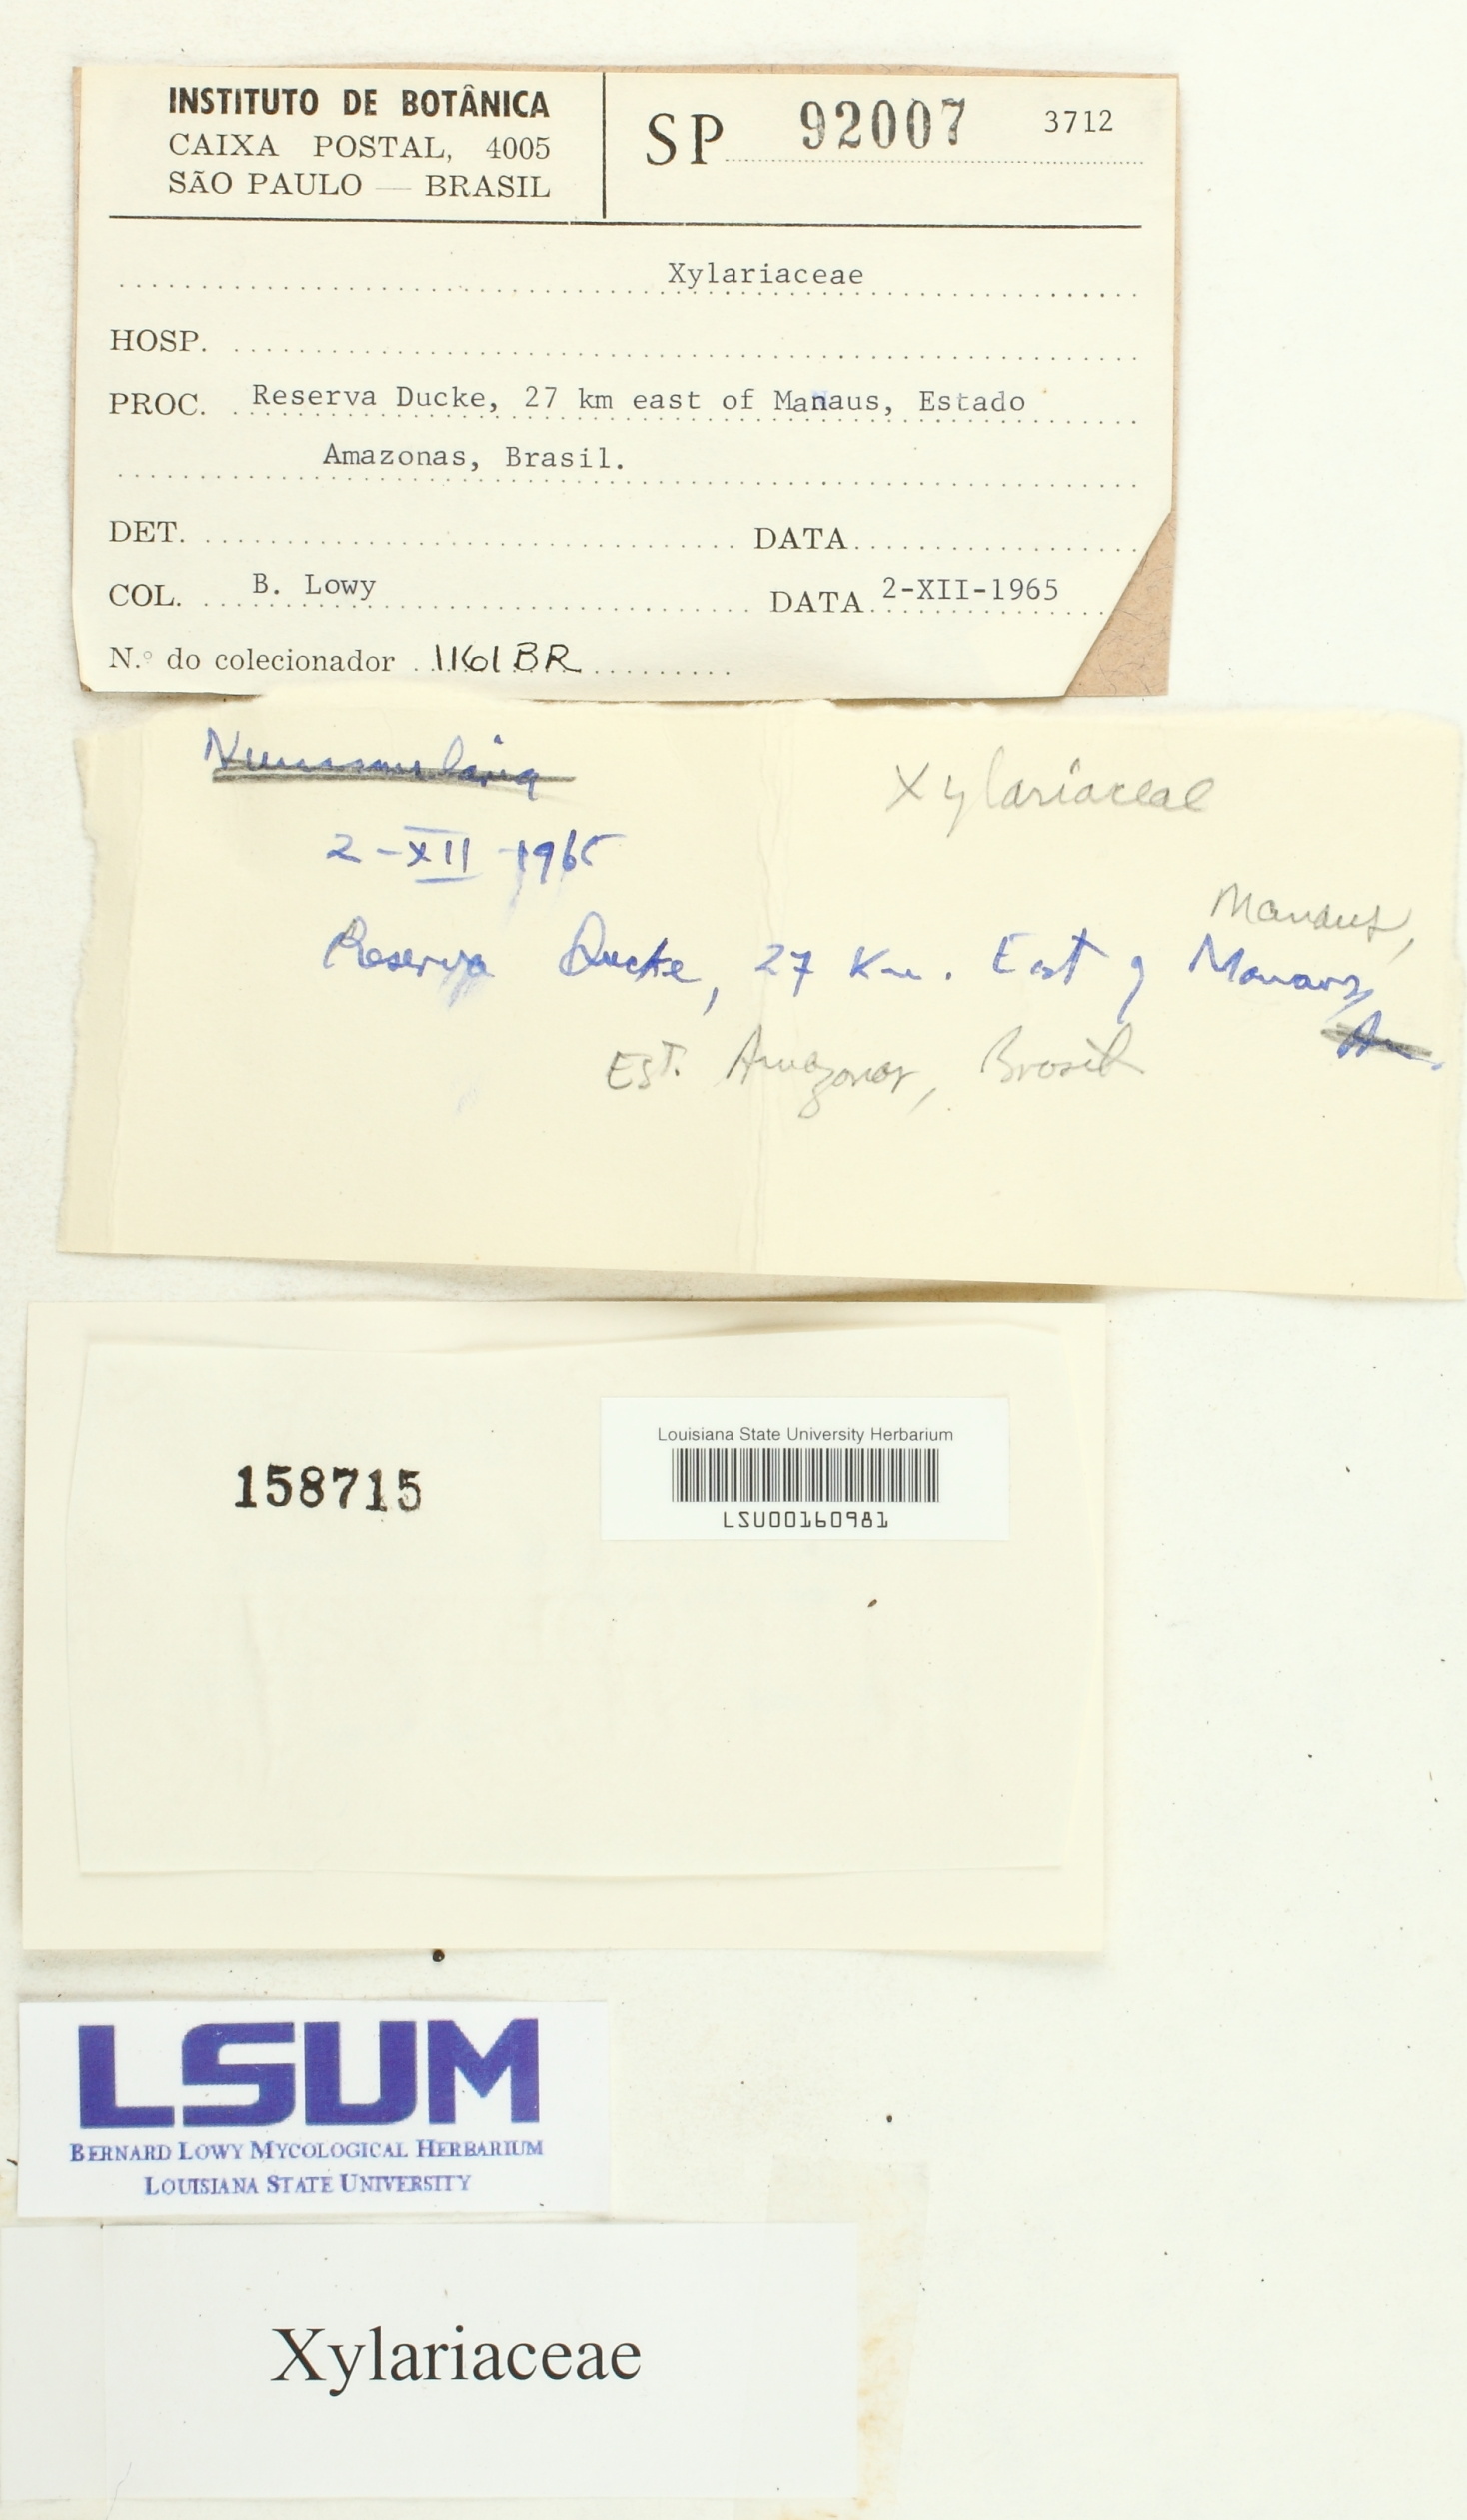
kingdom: Fungi
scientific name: Fungi
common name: Fungi
